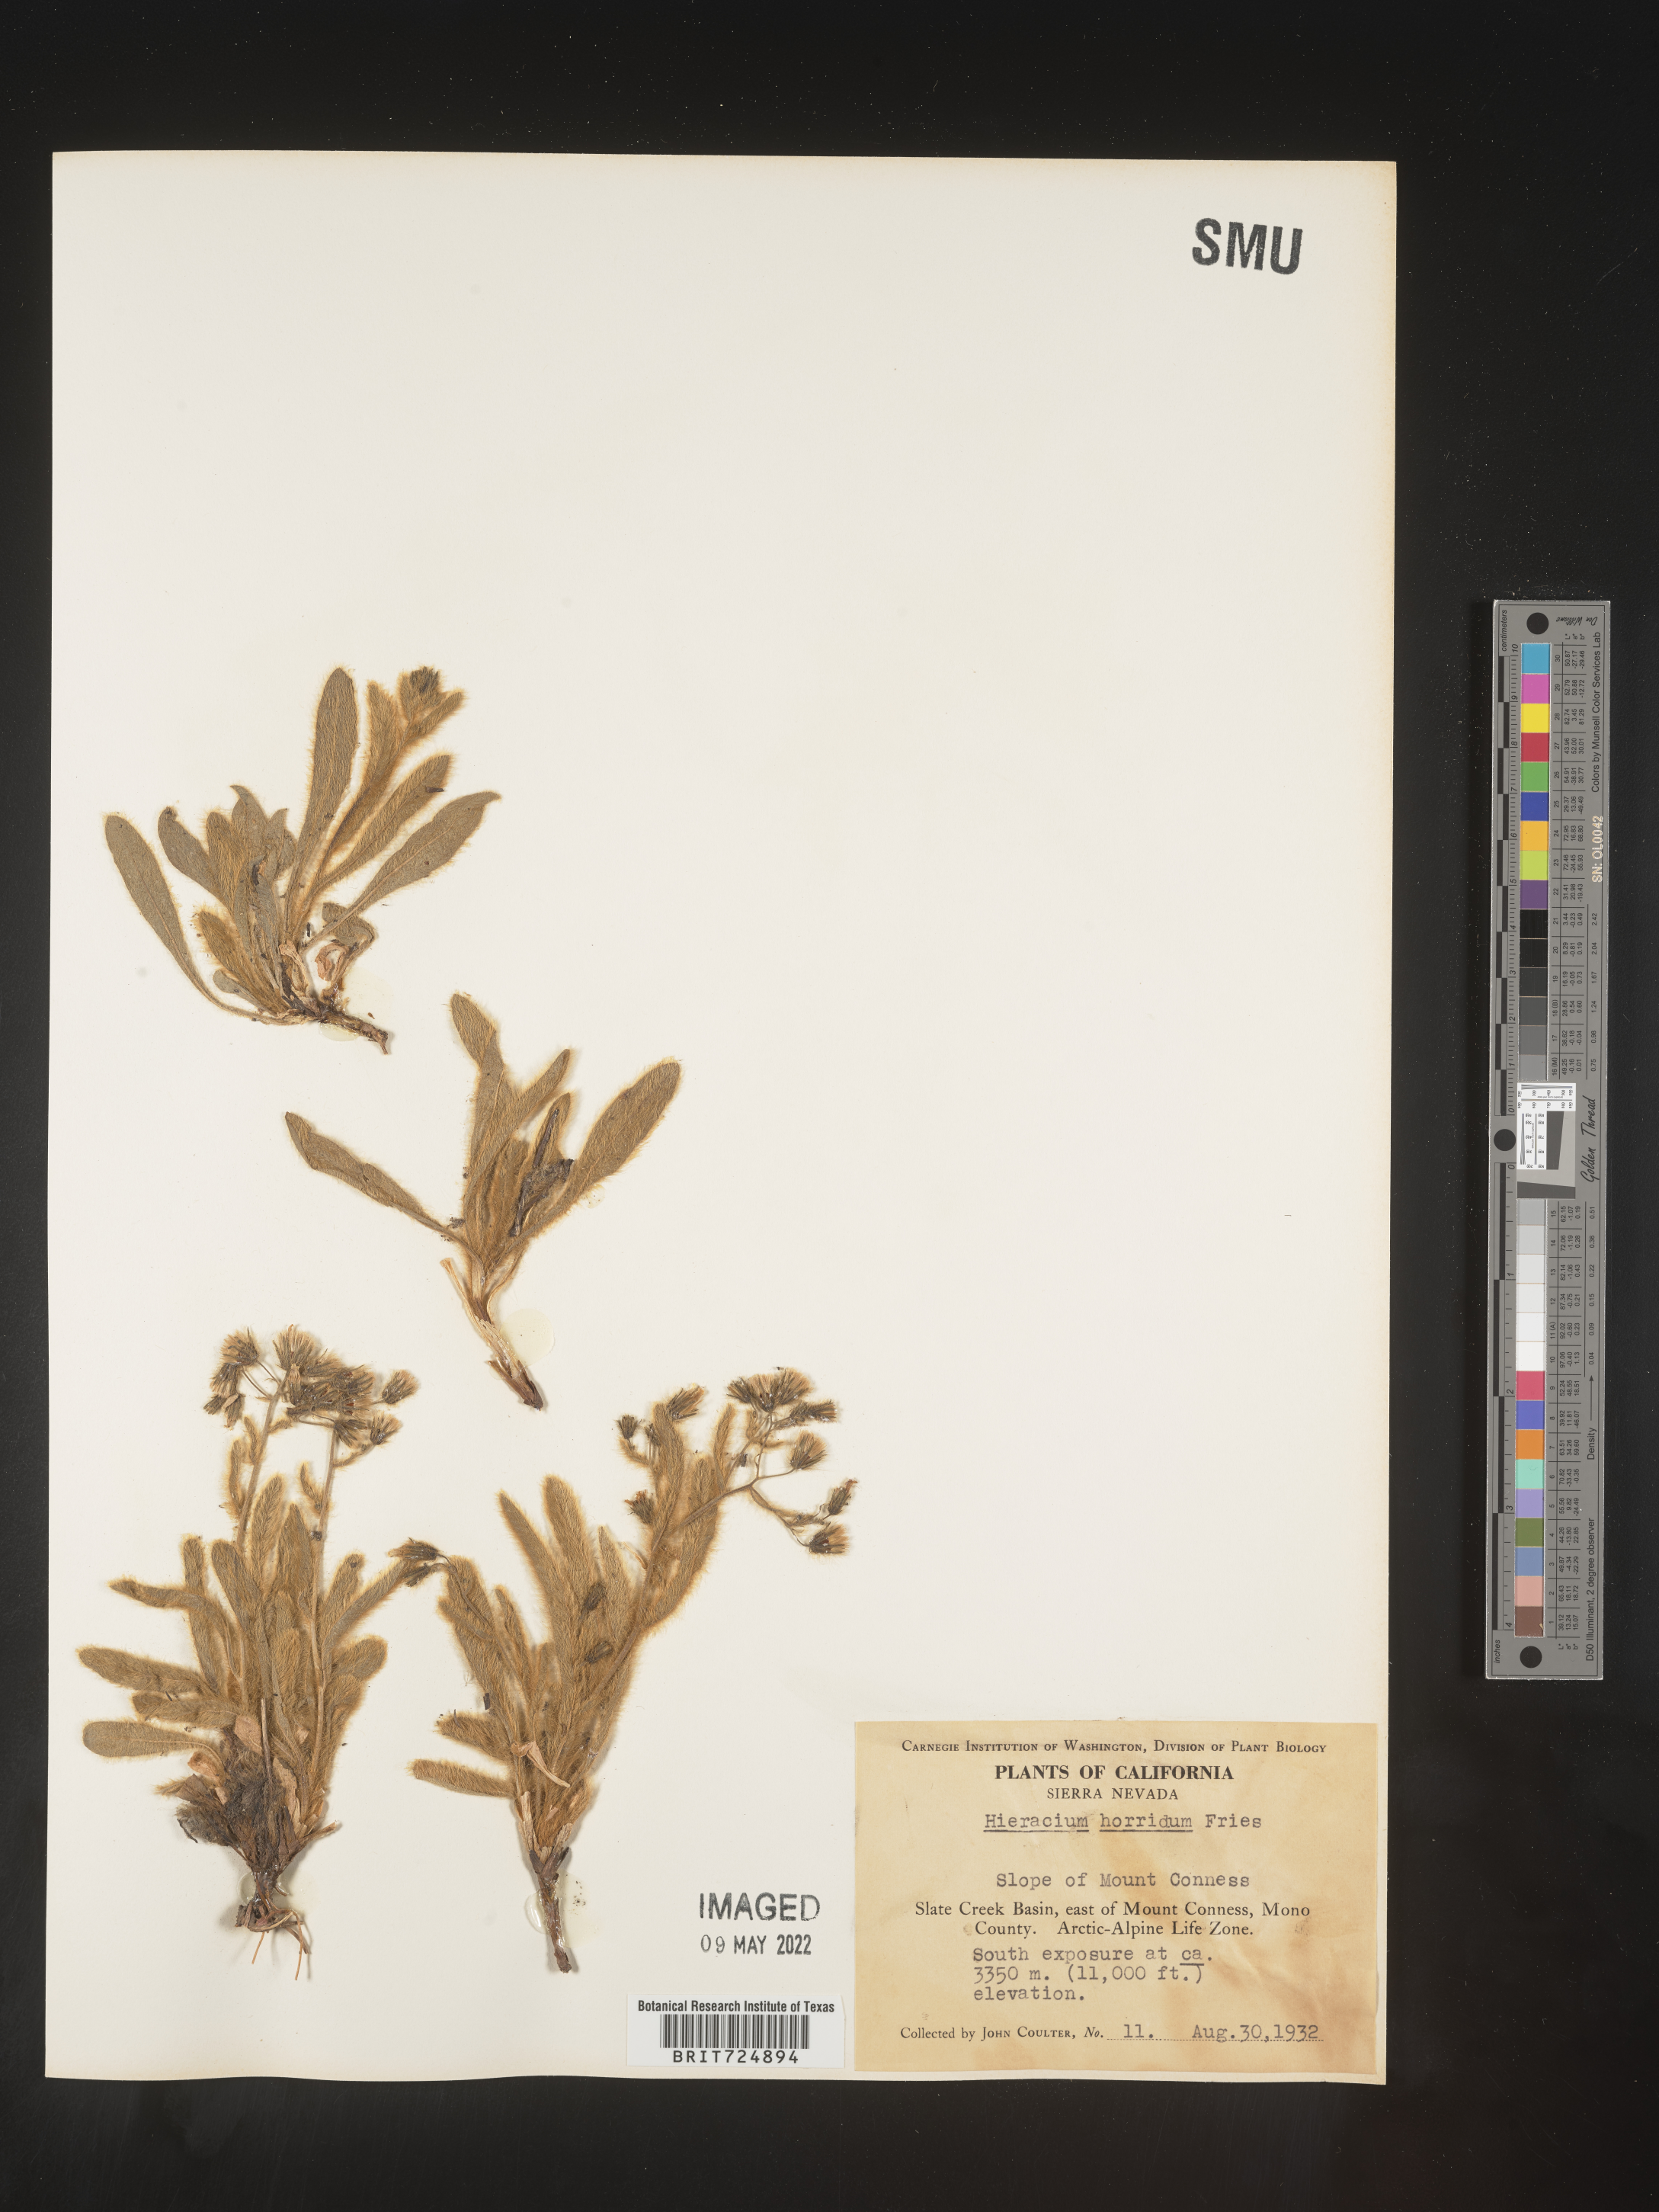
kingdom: Plantae
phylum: Tracheophyta
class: Magnoliopsida
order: Asterales
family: Asteraceae
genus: Hieracium
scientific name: Hieracium
